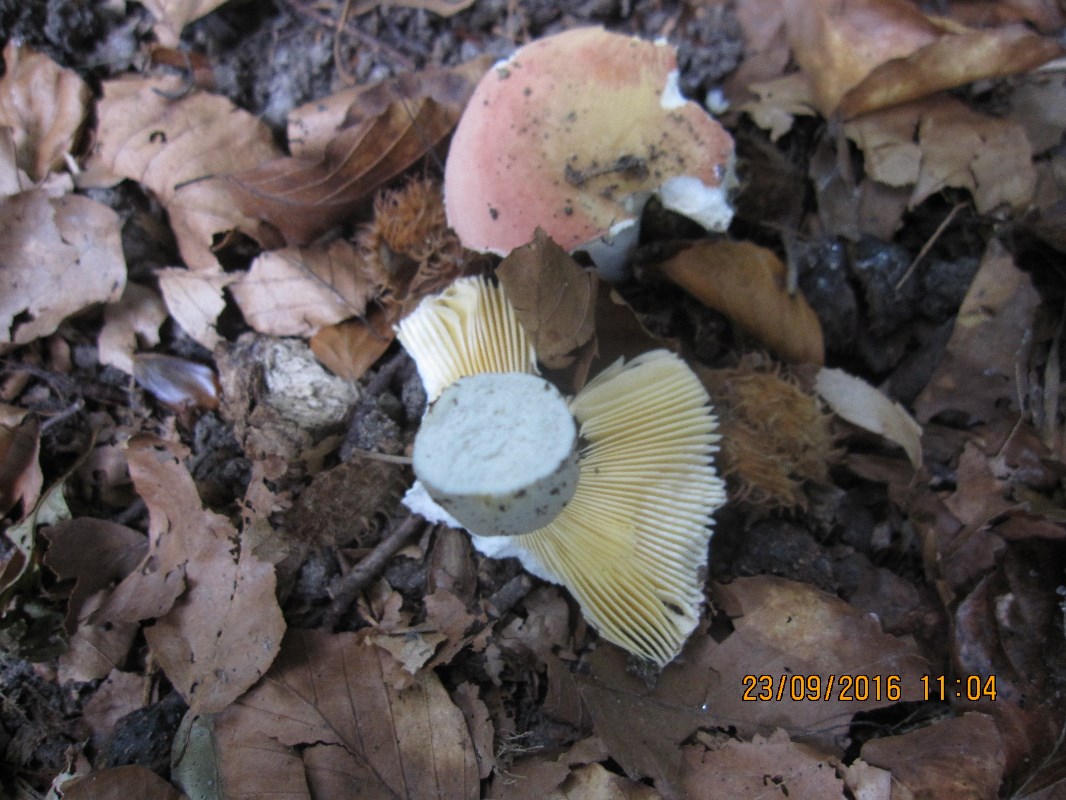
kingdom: Fungi
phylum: Basidiomycota
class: Agaricomycetes
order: Russulales
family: Russulaceae
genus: Russula
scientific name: Russula veternosa
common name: blødkødet skørhat
